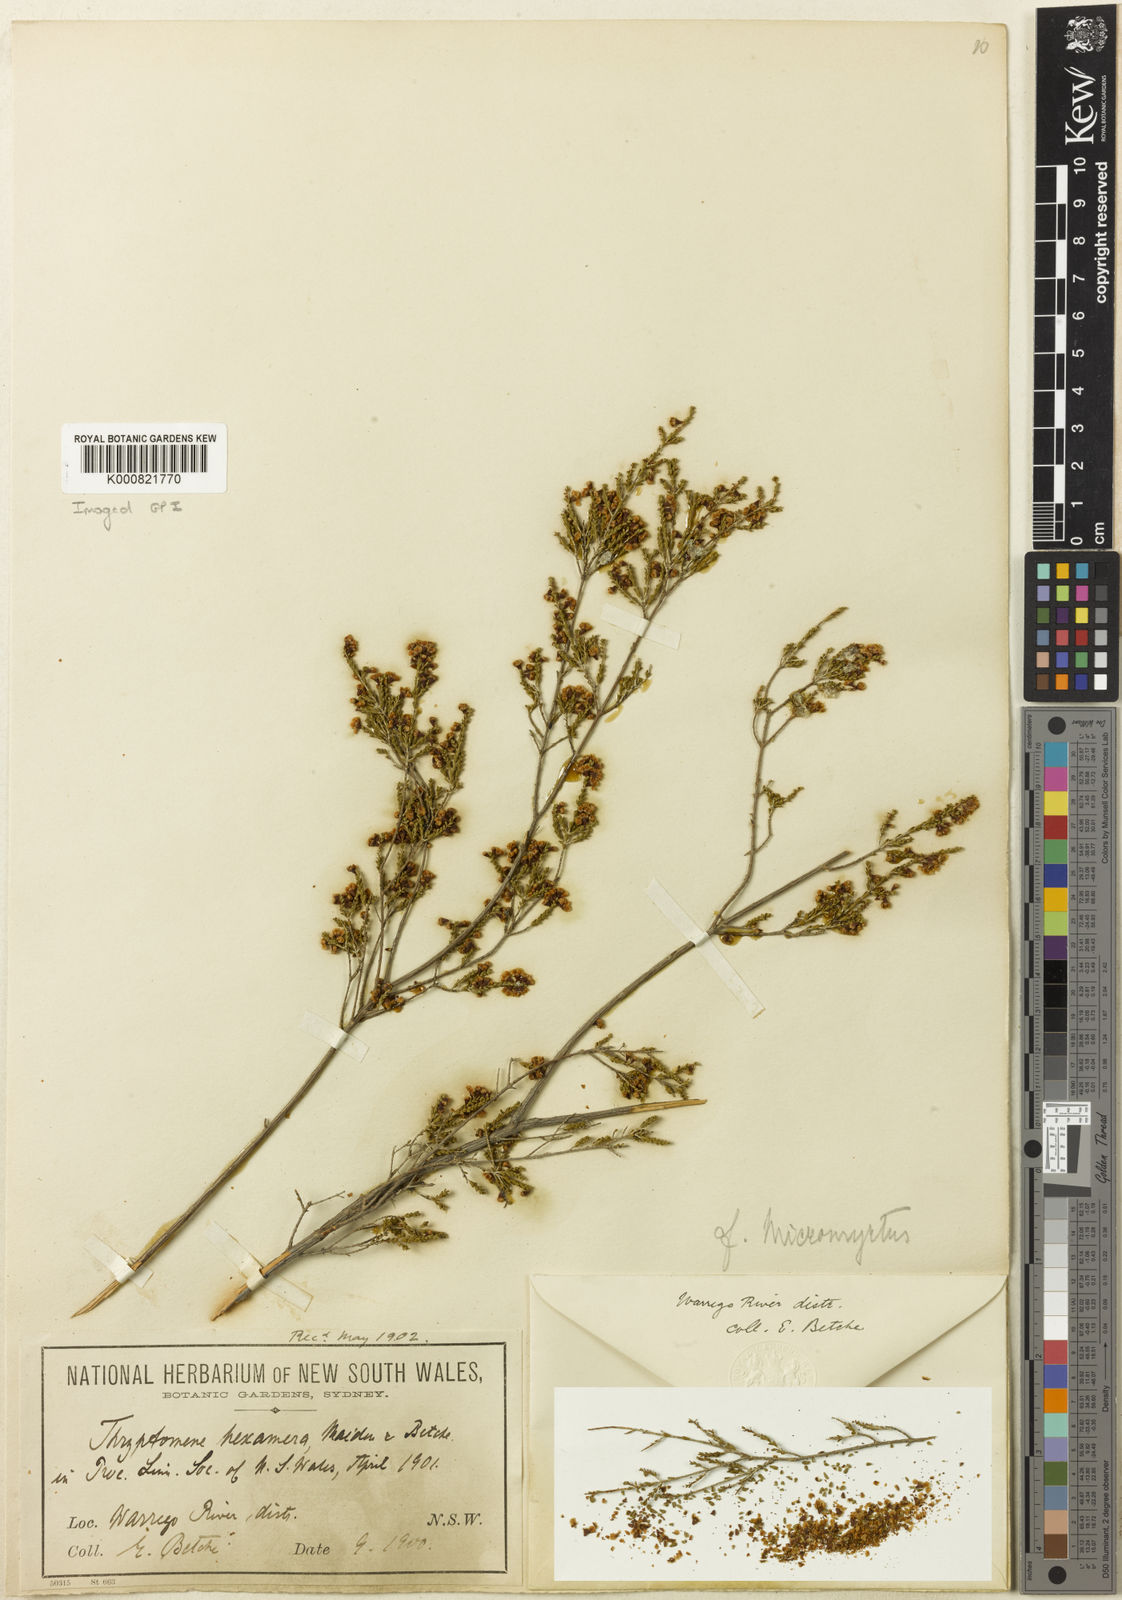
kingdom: Plantae
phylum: Tracheophyta
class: Magnoliopsida
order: Myrtales
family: Myrtaceae
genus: Micromyrtus
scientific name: Micromyrtus hexamera
